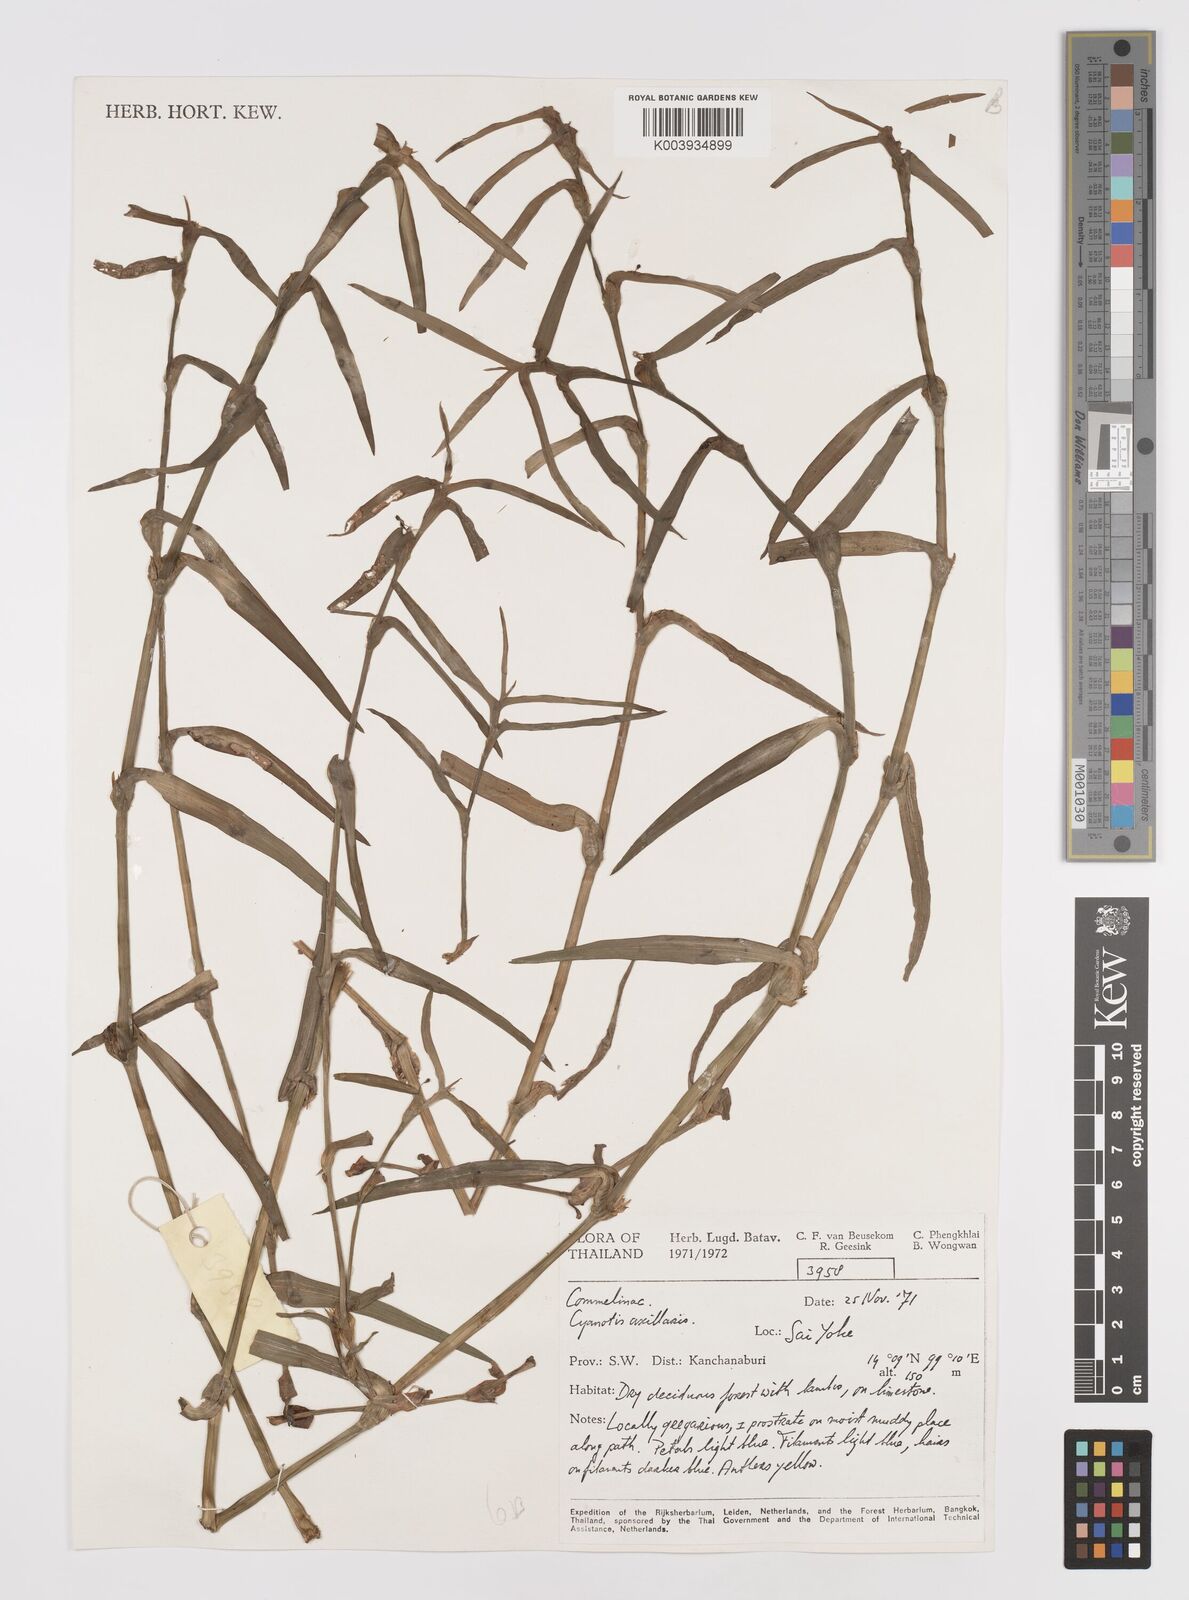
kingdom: Plantae
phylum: Tracheophyta
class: Liliopsida
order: Commelinales
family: Commelinaceae
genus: Cyanotis
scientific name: Cyanotis axillaris
